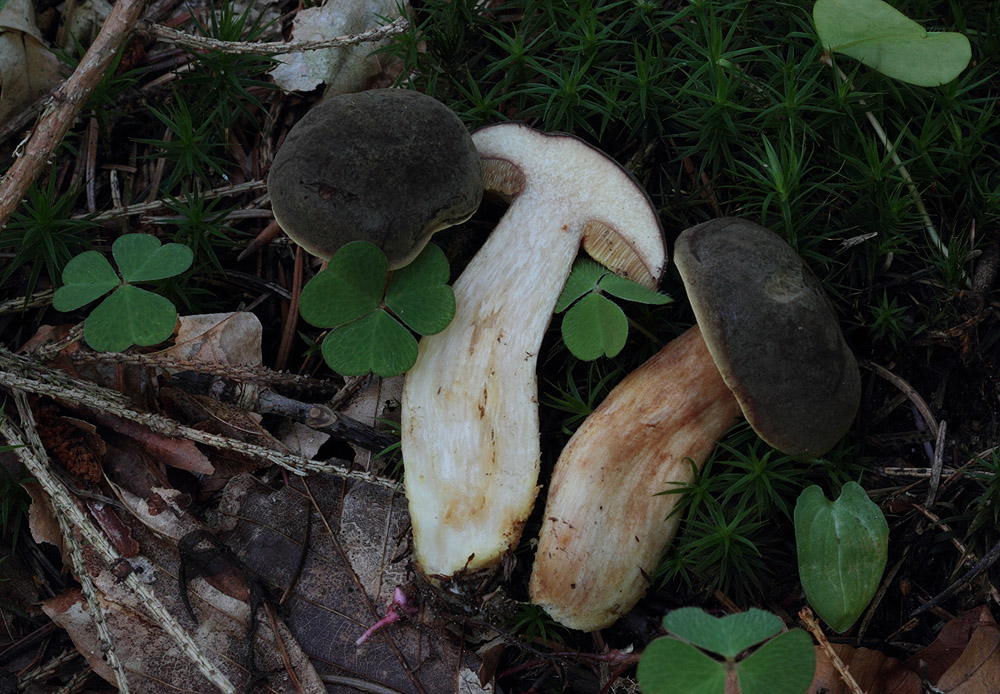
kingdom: Fungi
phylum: Basidiomycota
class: Agaricomycetes
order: Boletales
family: Boletaceae
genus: Xerocomus
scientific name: Xerocomus ferrugineus
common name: vaskeskinds-rørhat
